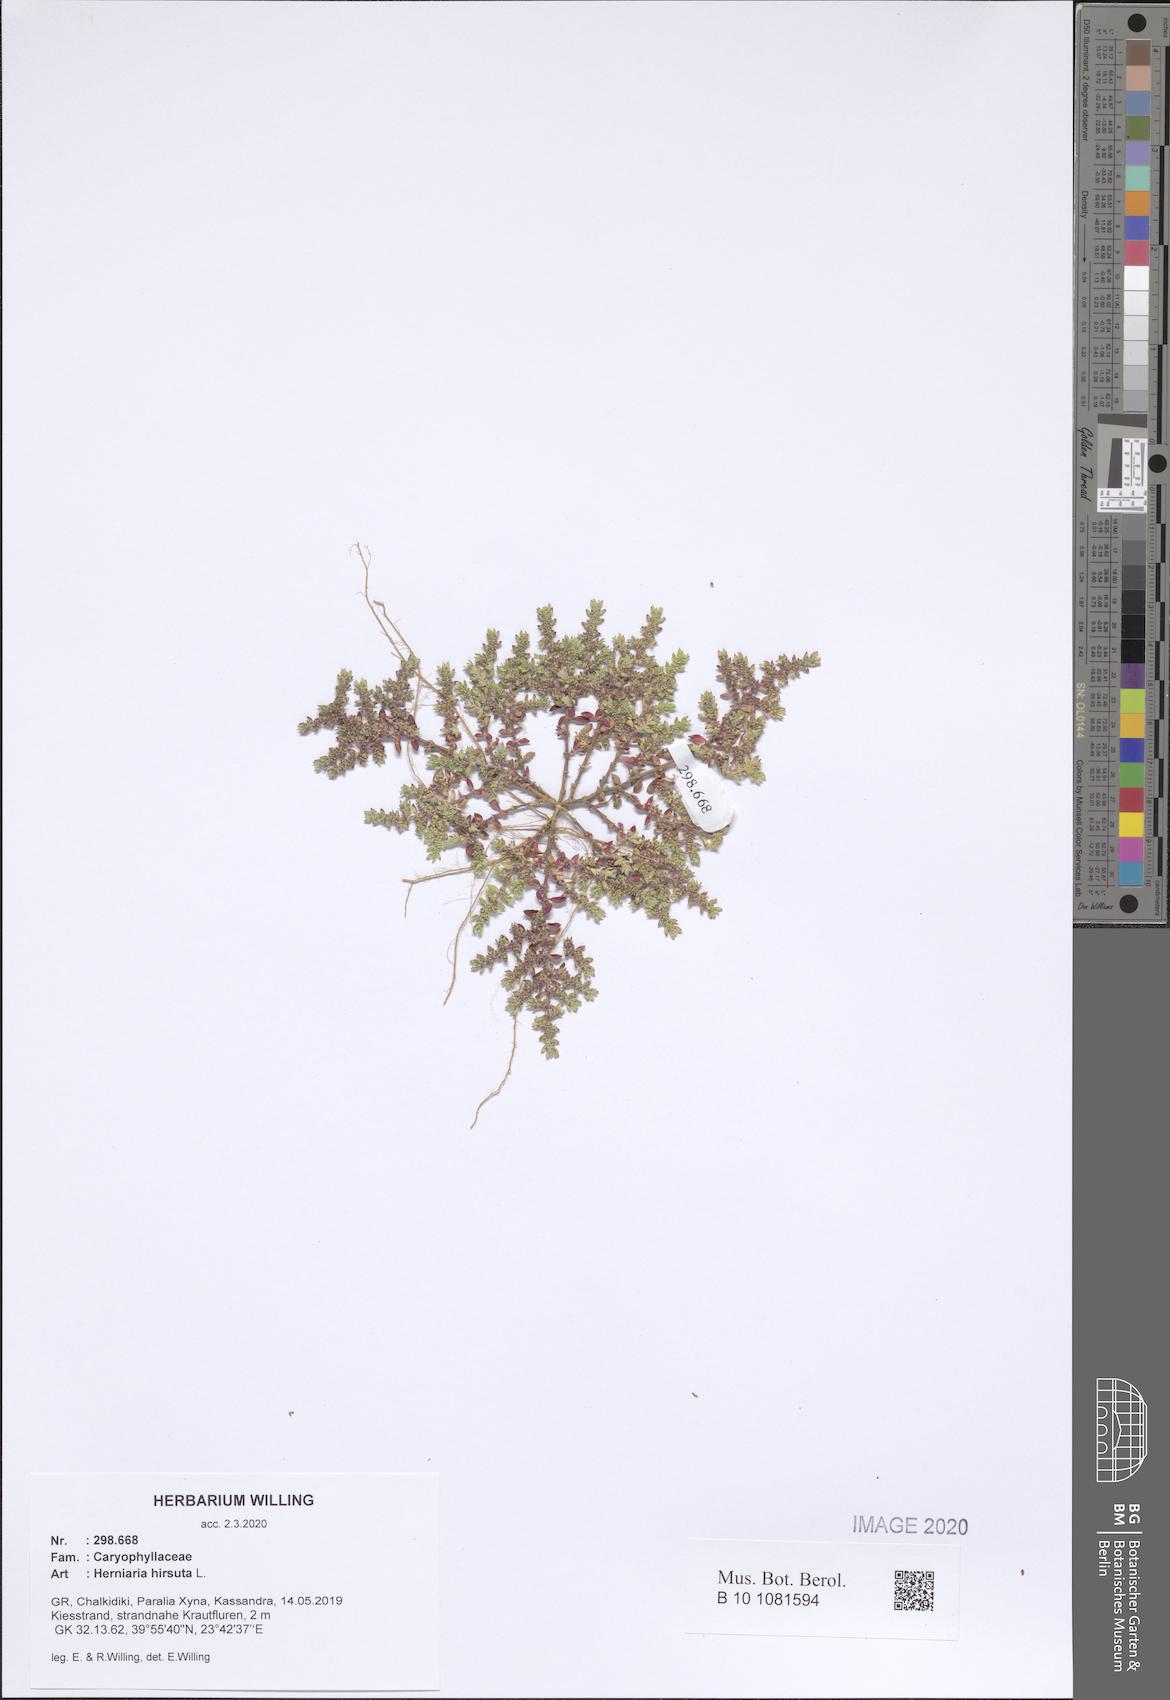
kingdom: Plantae
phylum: Tracheophyta
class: Magnoliopsida
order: Caryophyllales
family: Caryophyllaceae
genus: Herniaria
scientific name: Herniaria hirsuta
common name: Hairy rupturewort
